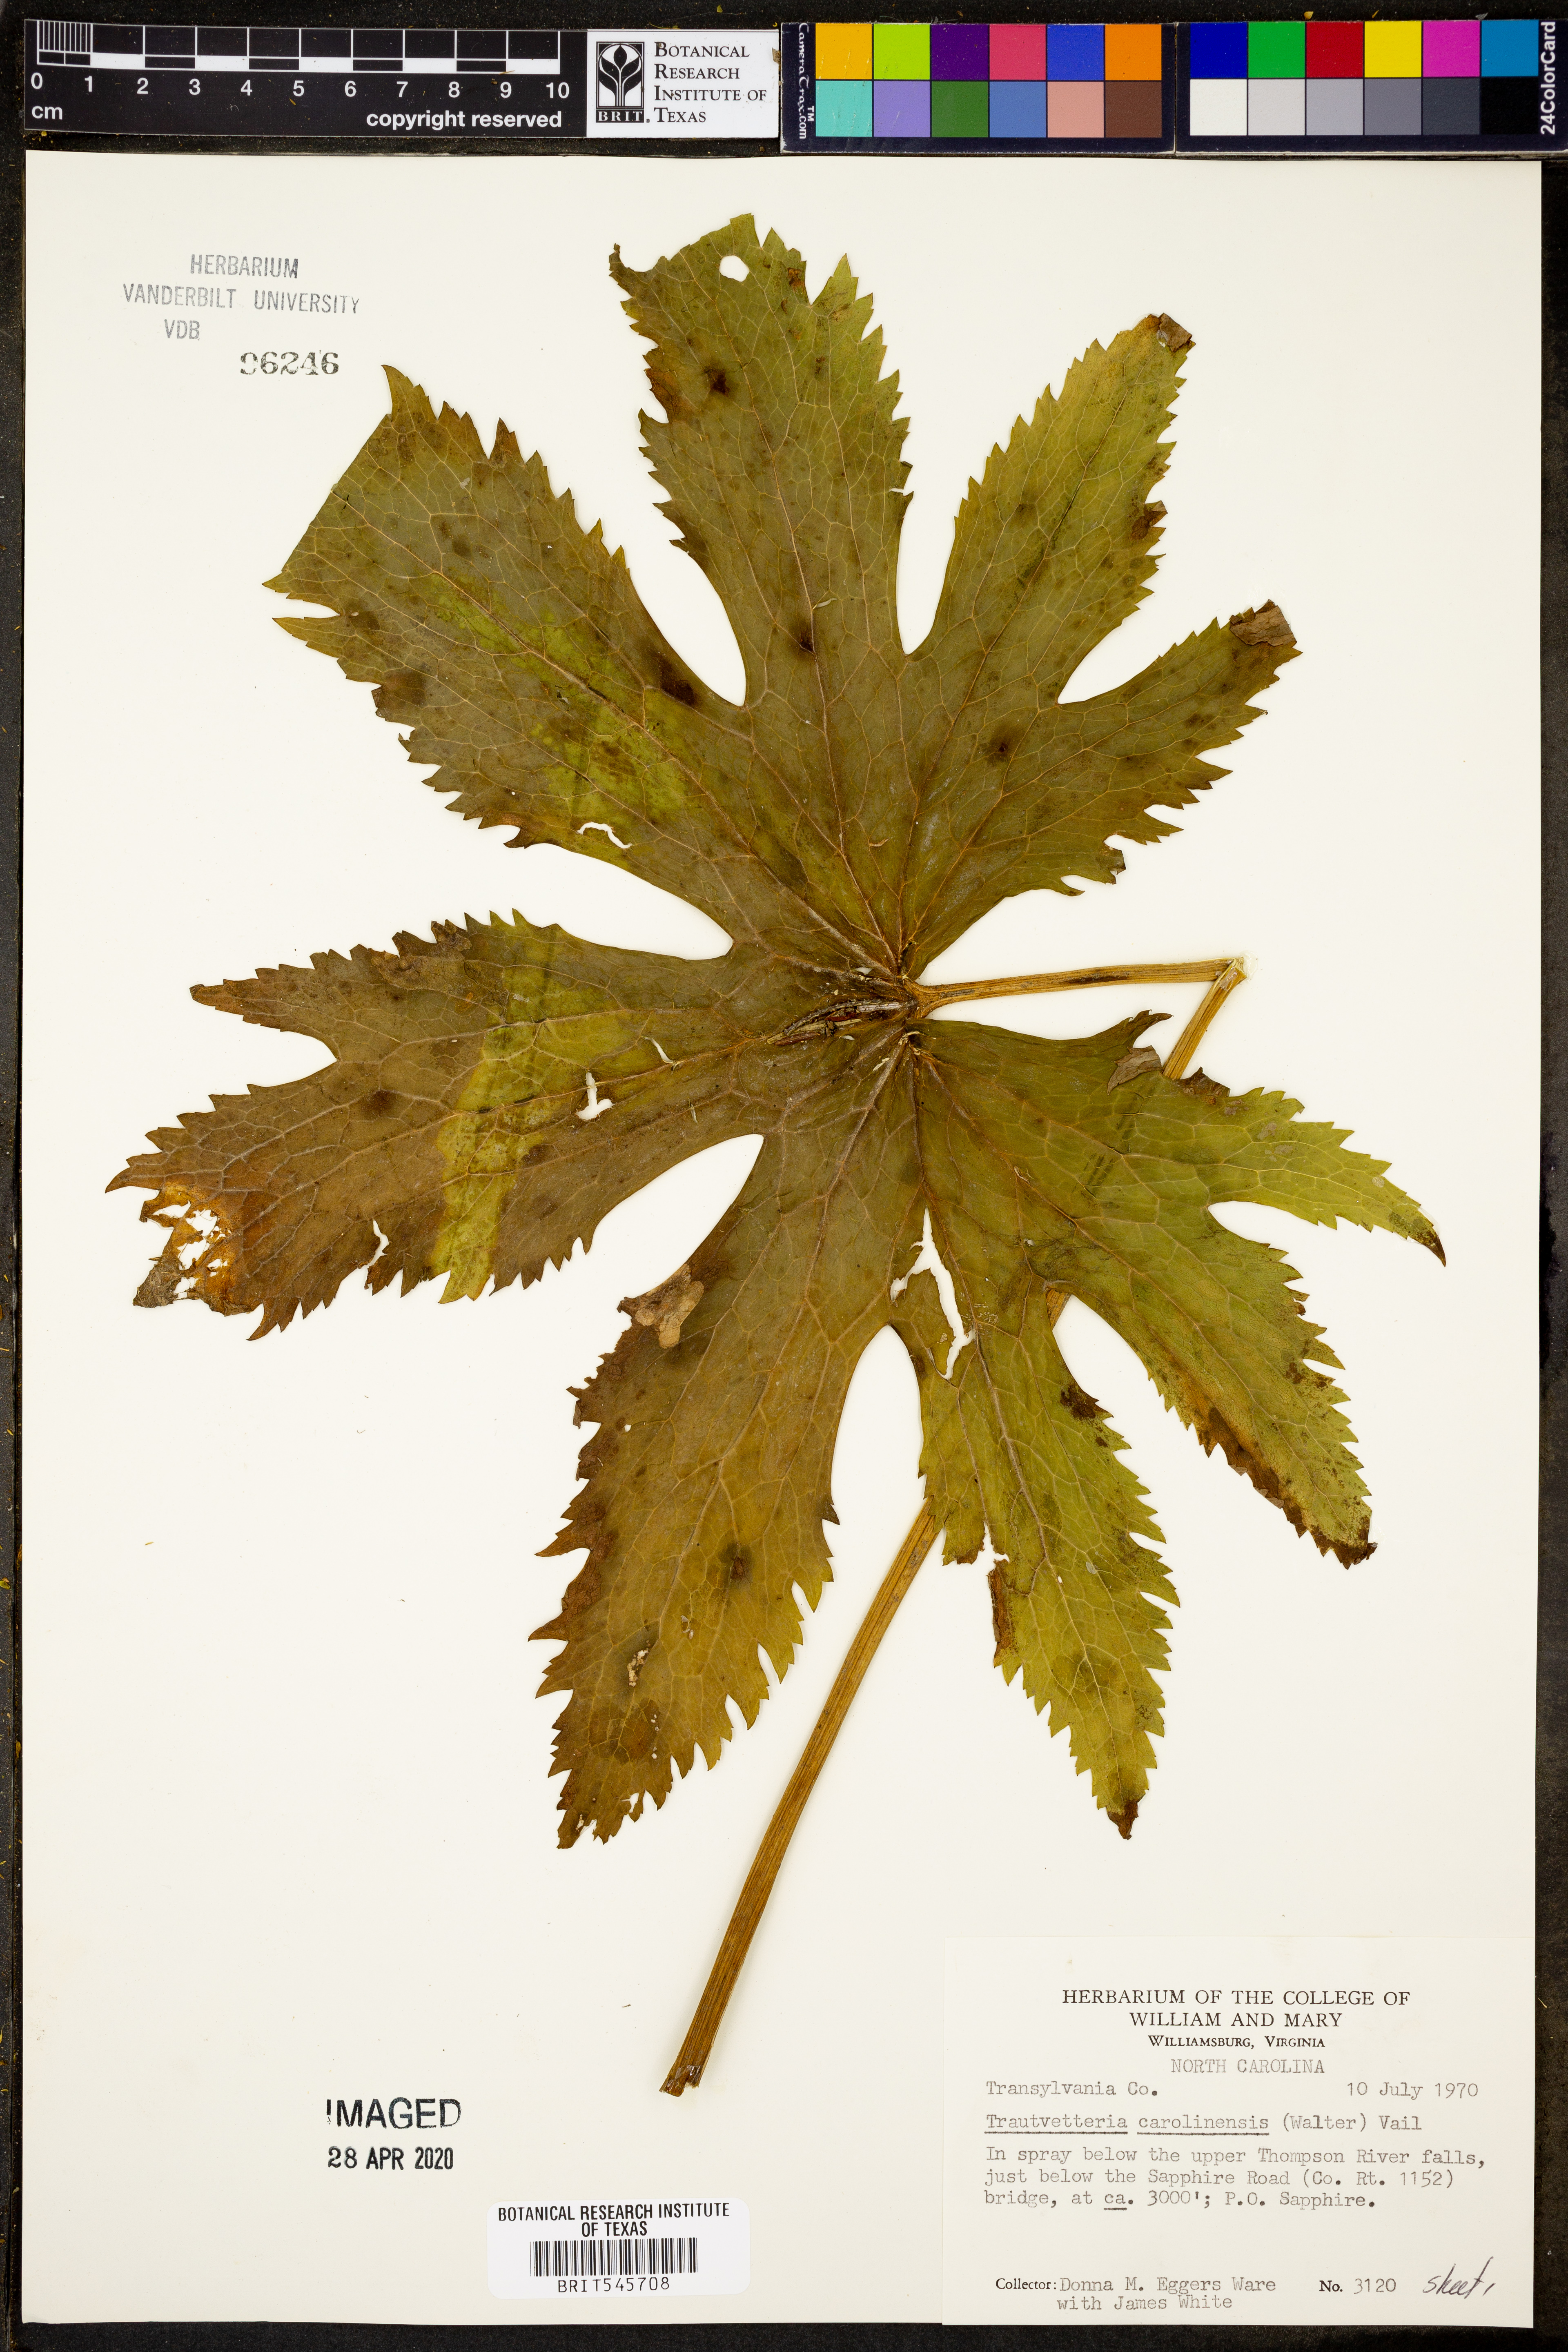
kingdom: Plantae
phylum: Tracheophyta
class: Magnoliopsida
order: Ranunculales
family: Ranunculaceae
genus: Trautvetteria
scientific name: Trautvetteria carolinensis
